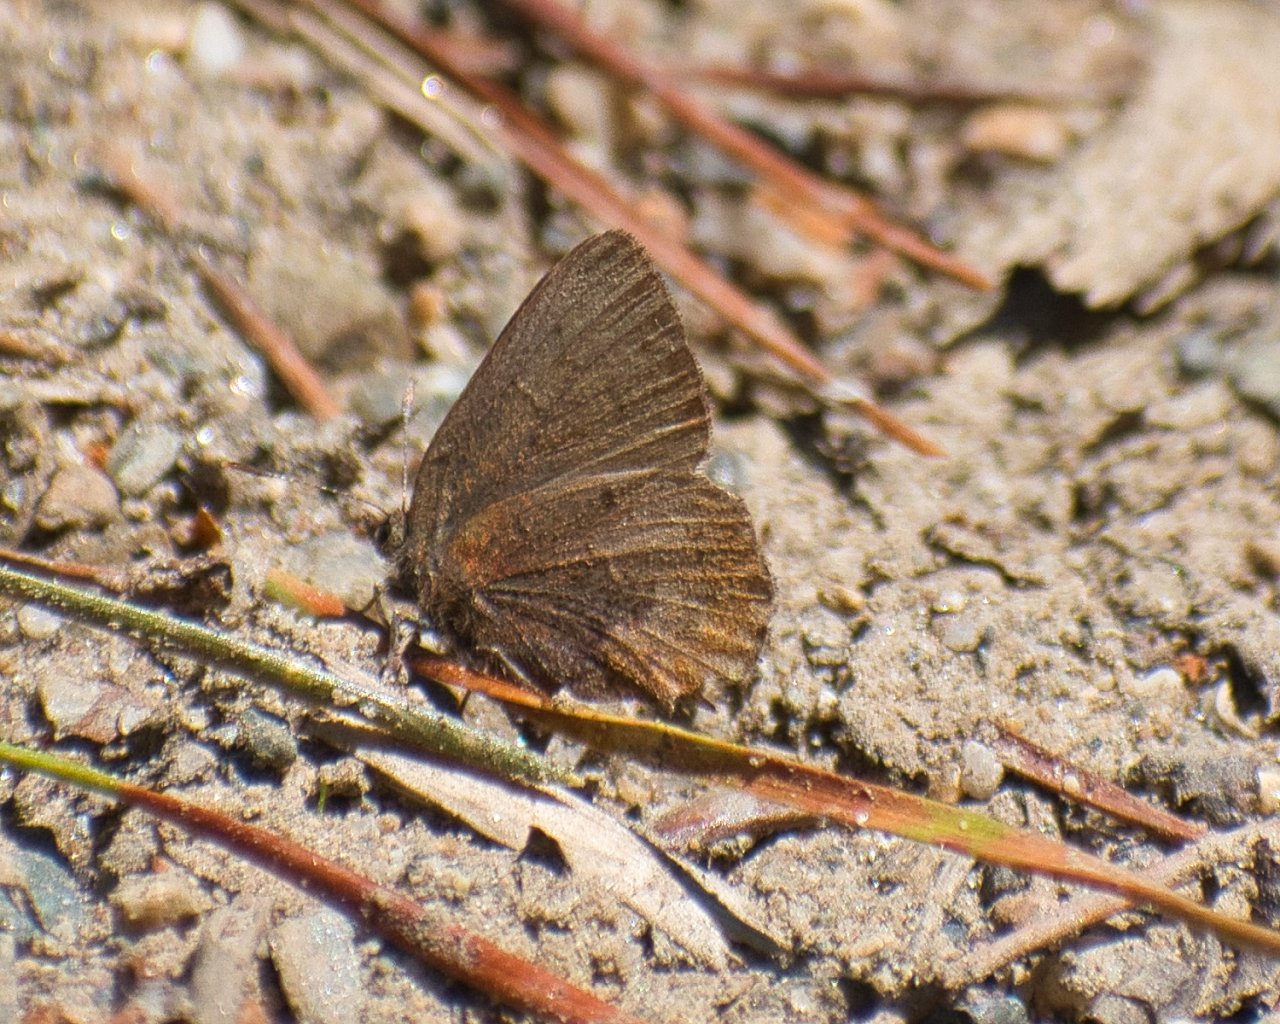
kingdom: Animalia
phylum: Arthropoda
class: Insecta
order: Lepidoptera
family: Lycaenidae
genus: Incisalia
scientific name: Incisalia irioides
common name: Brown Elfin
